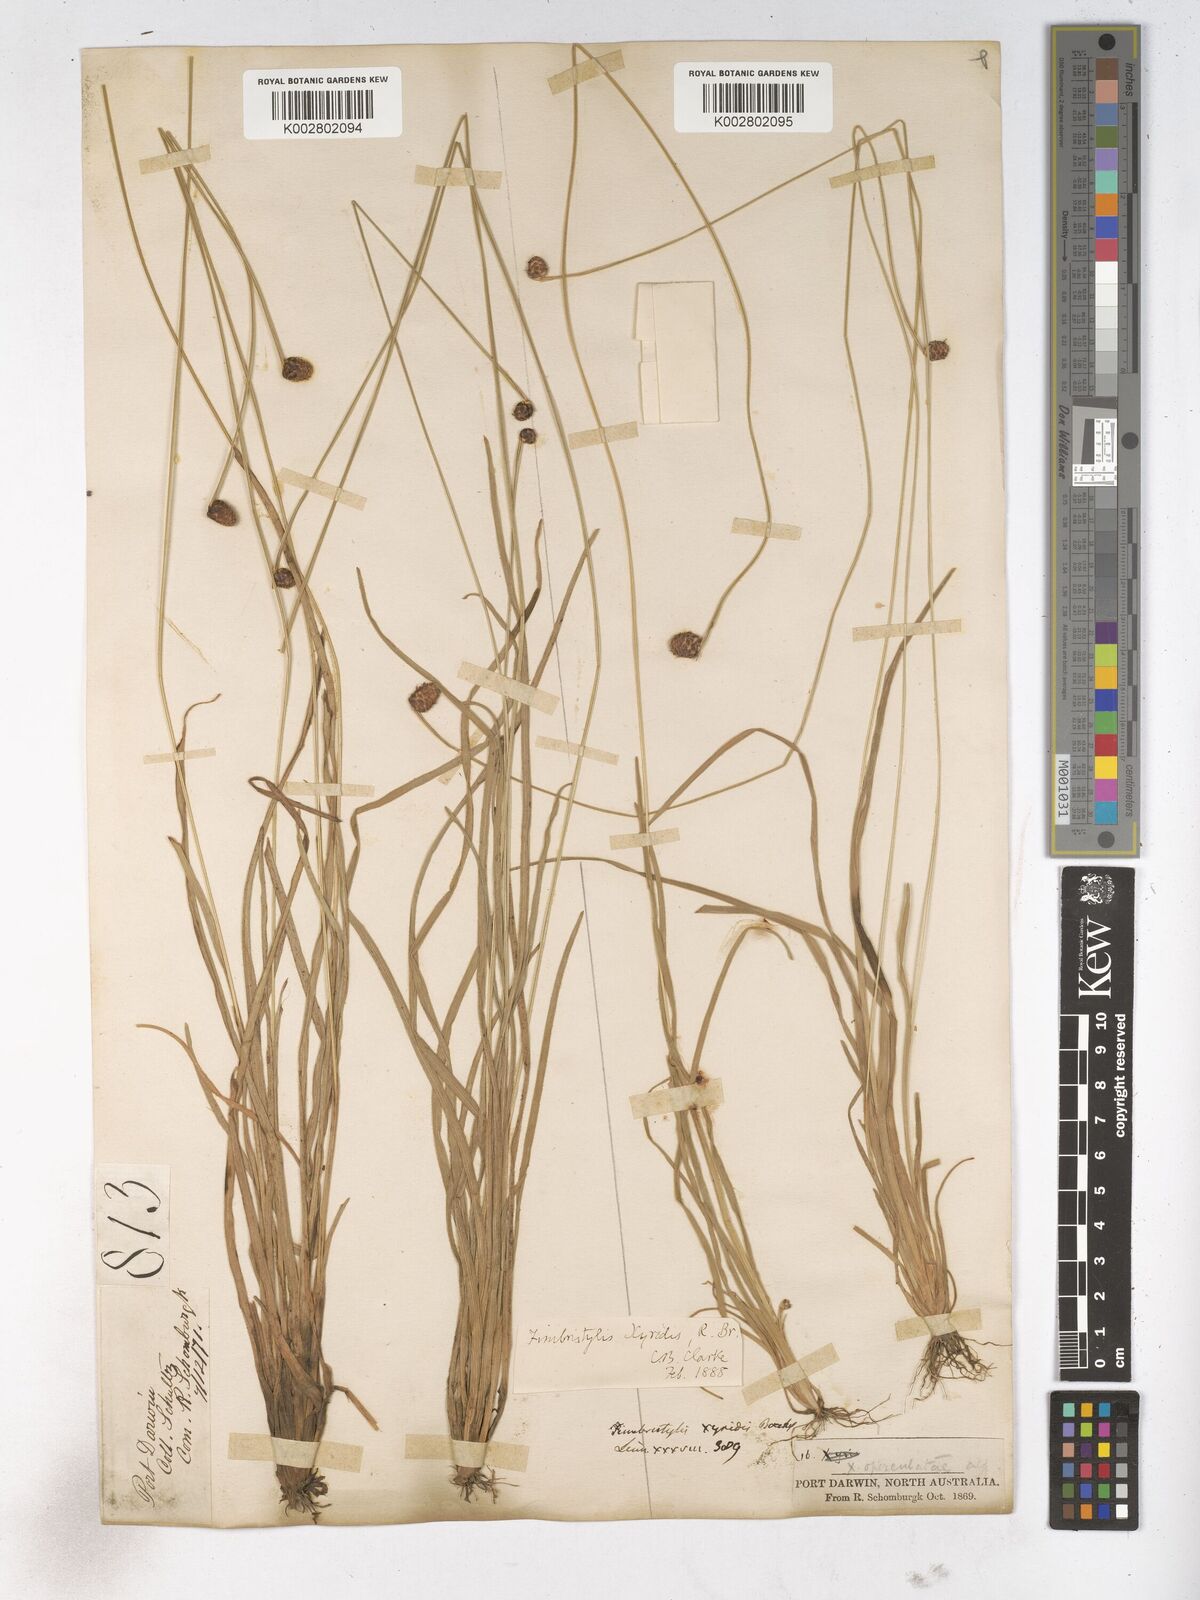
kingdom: Plantae
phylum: Tracheophyta
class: Liliopsida
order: Poales
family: Cyperaceae
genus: Fimbristylis
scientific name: Fimbristylis xyridis
